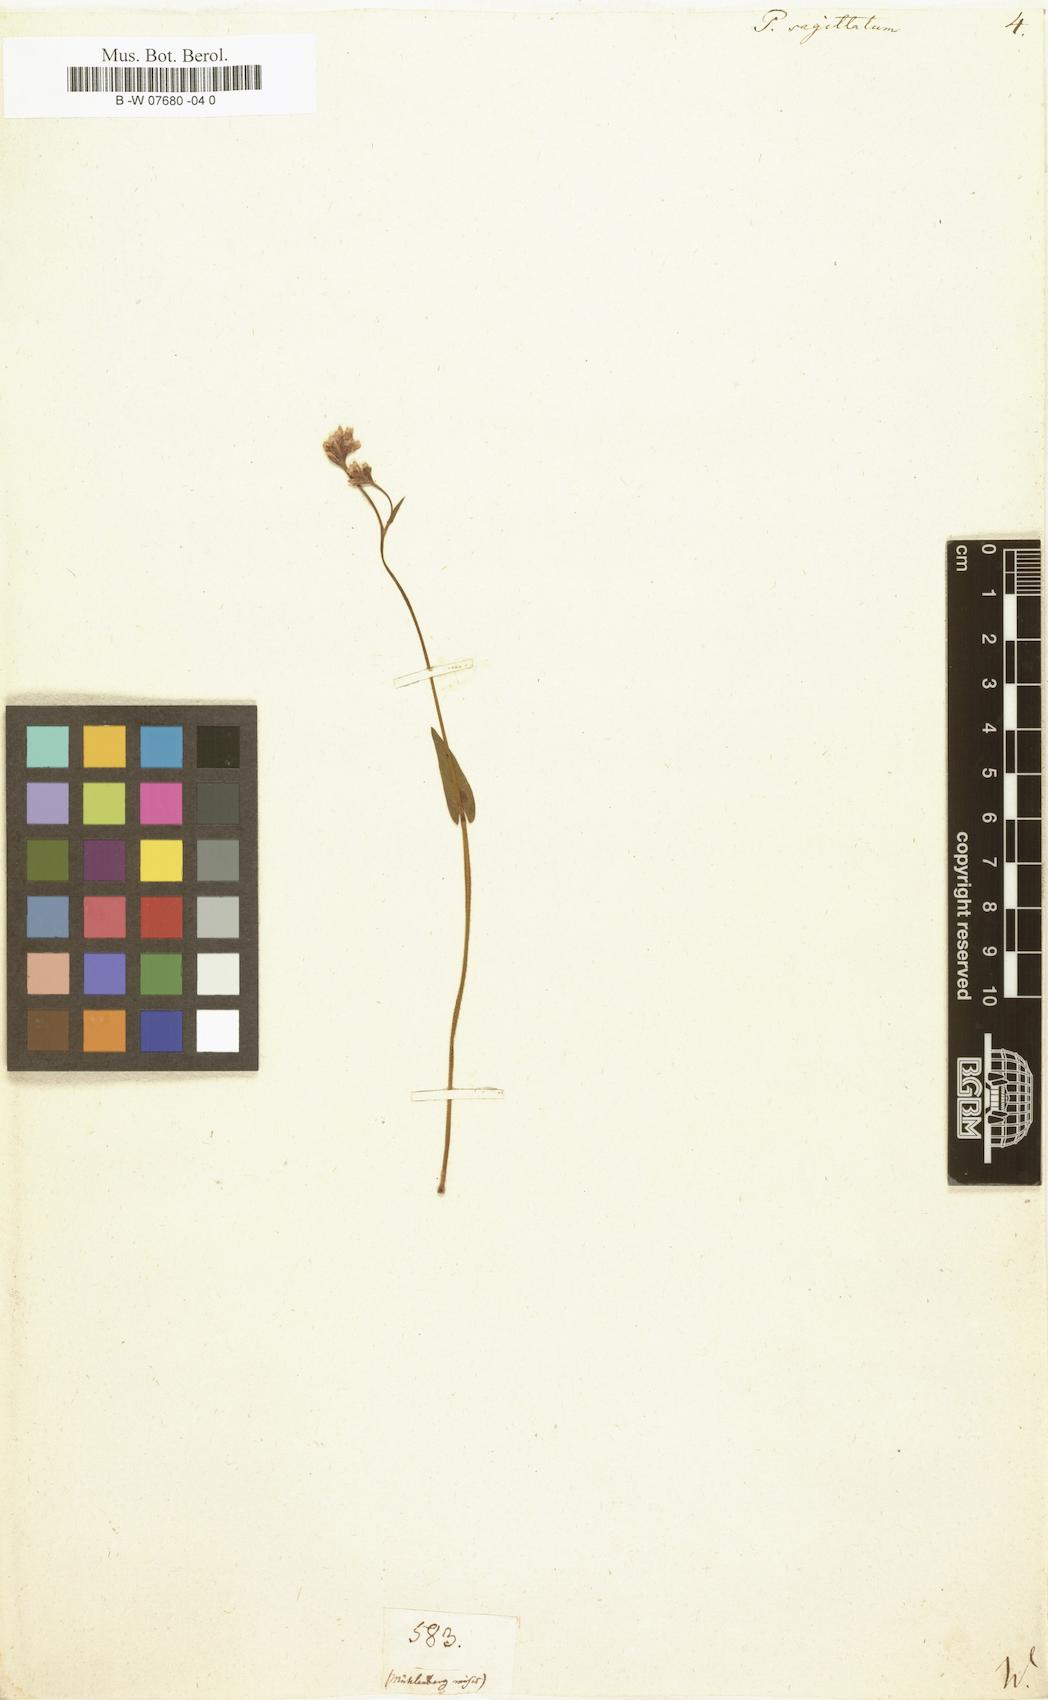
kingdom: Plantae
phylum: Tracheophyta
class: Magnoliopsida
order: Caryophyllales
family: Polygonaceae
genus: Polygonum
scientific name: Polygonum sagittatum
